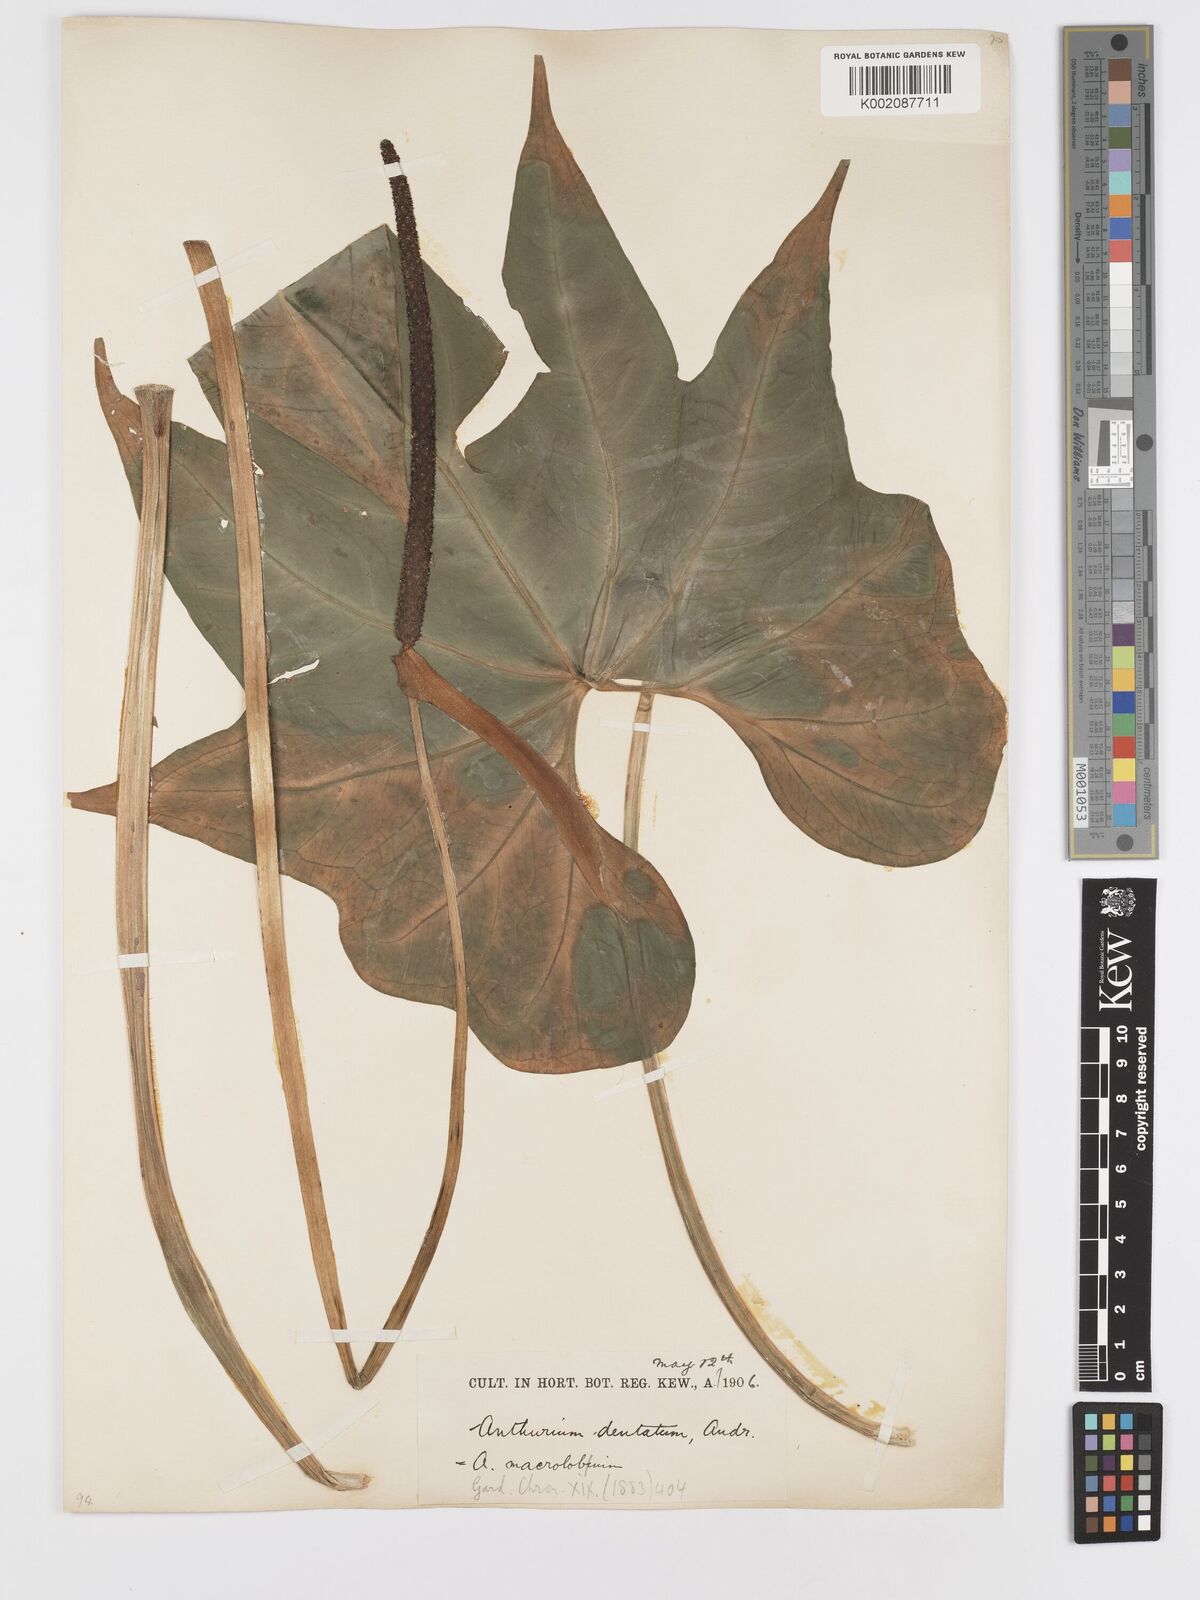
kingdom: Plantae
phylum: Tracheophyta
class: Liliopsida
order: Alismatales
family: Araceae
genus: Anthurium
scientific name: Anthurium leuconeurum
